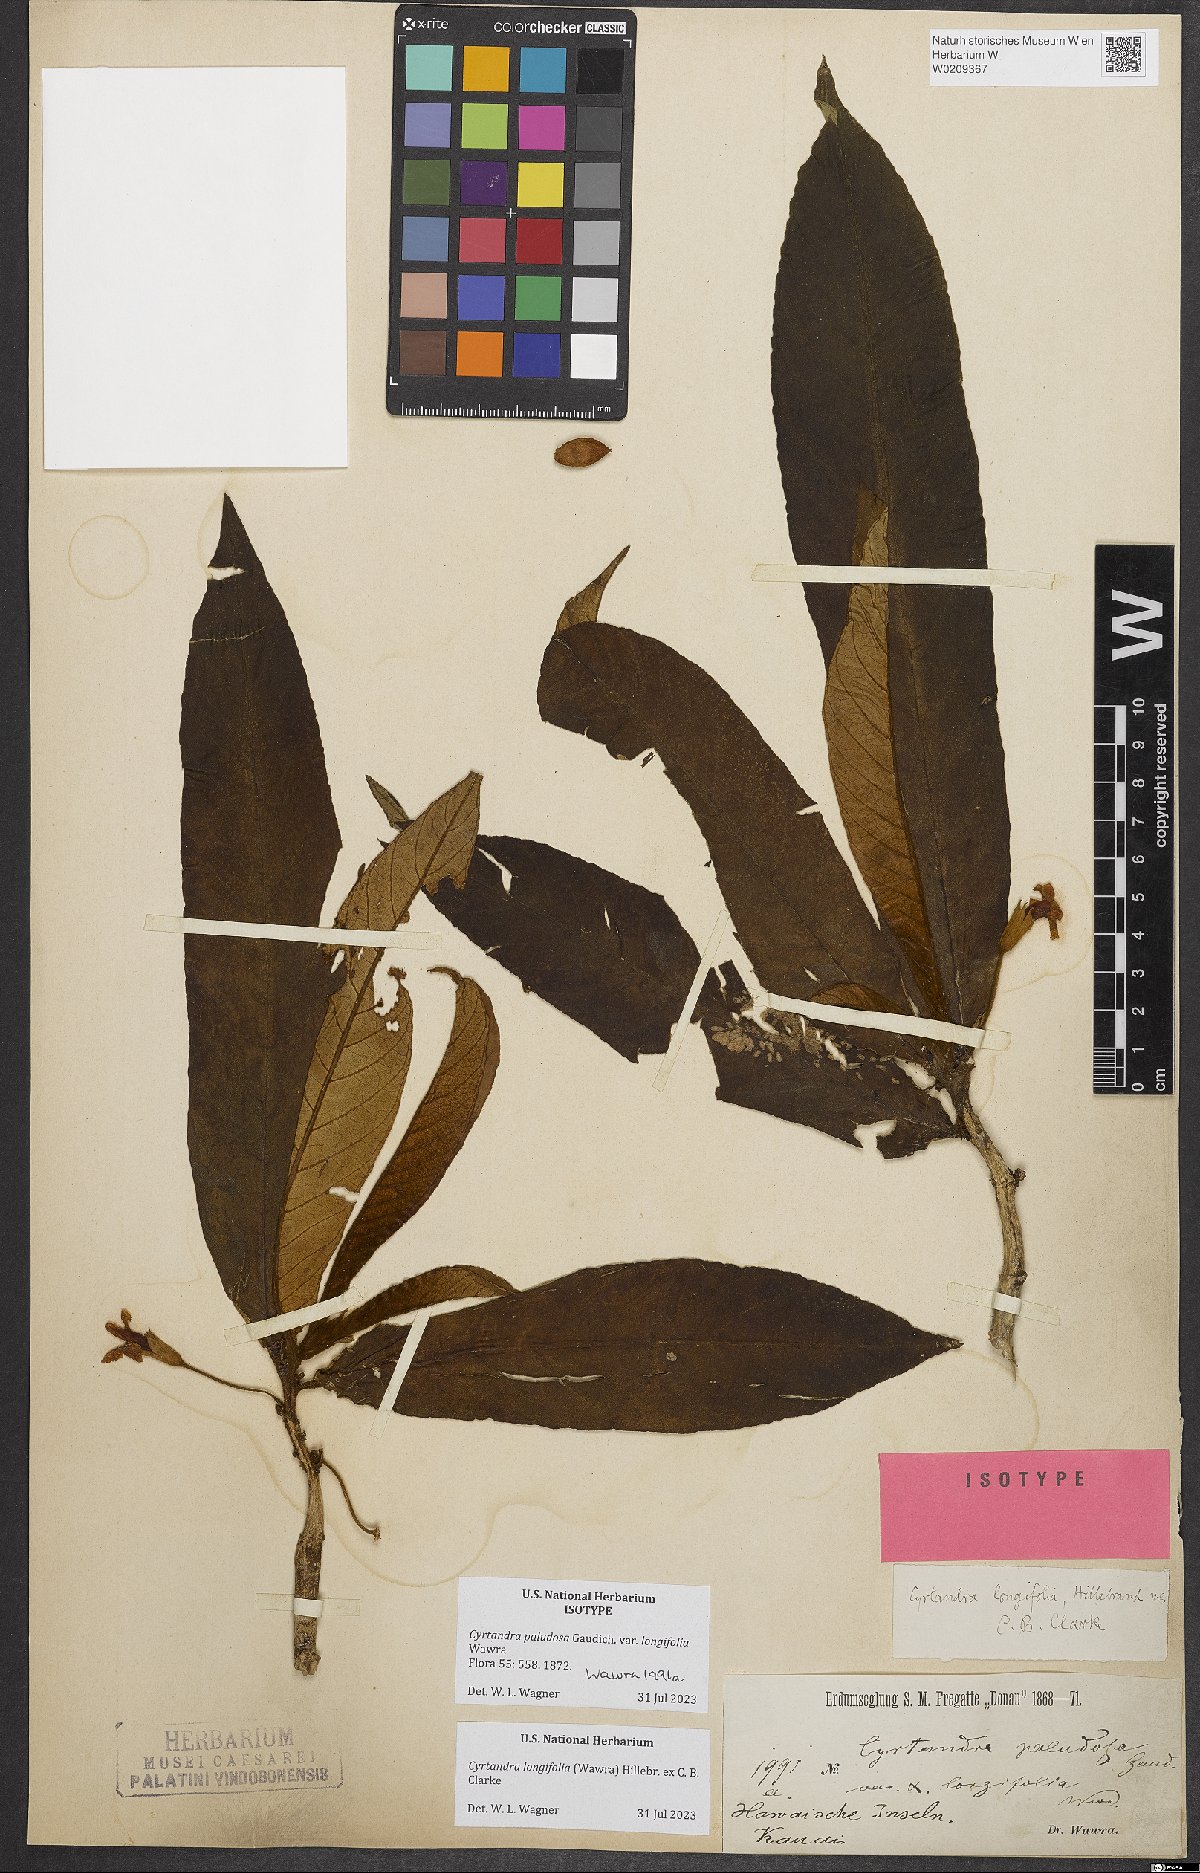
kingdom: Plantae
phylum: Tracheophyta
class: Magnoliopsida
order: Lamiales
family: Gesneriaceae
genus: Cyrtandra
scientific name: Cyrtandra longifolia
